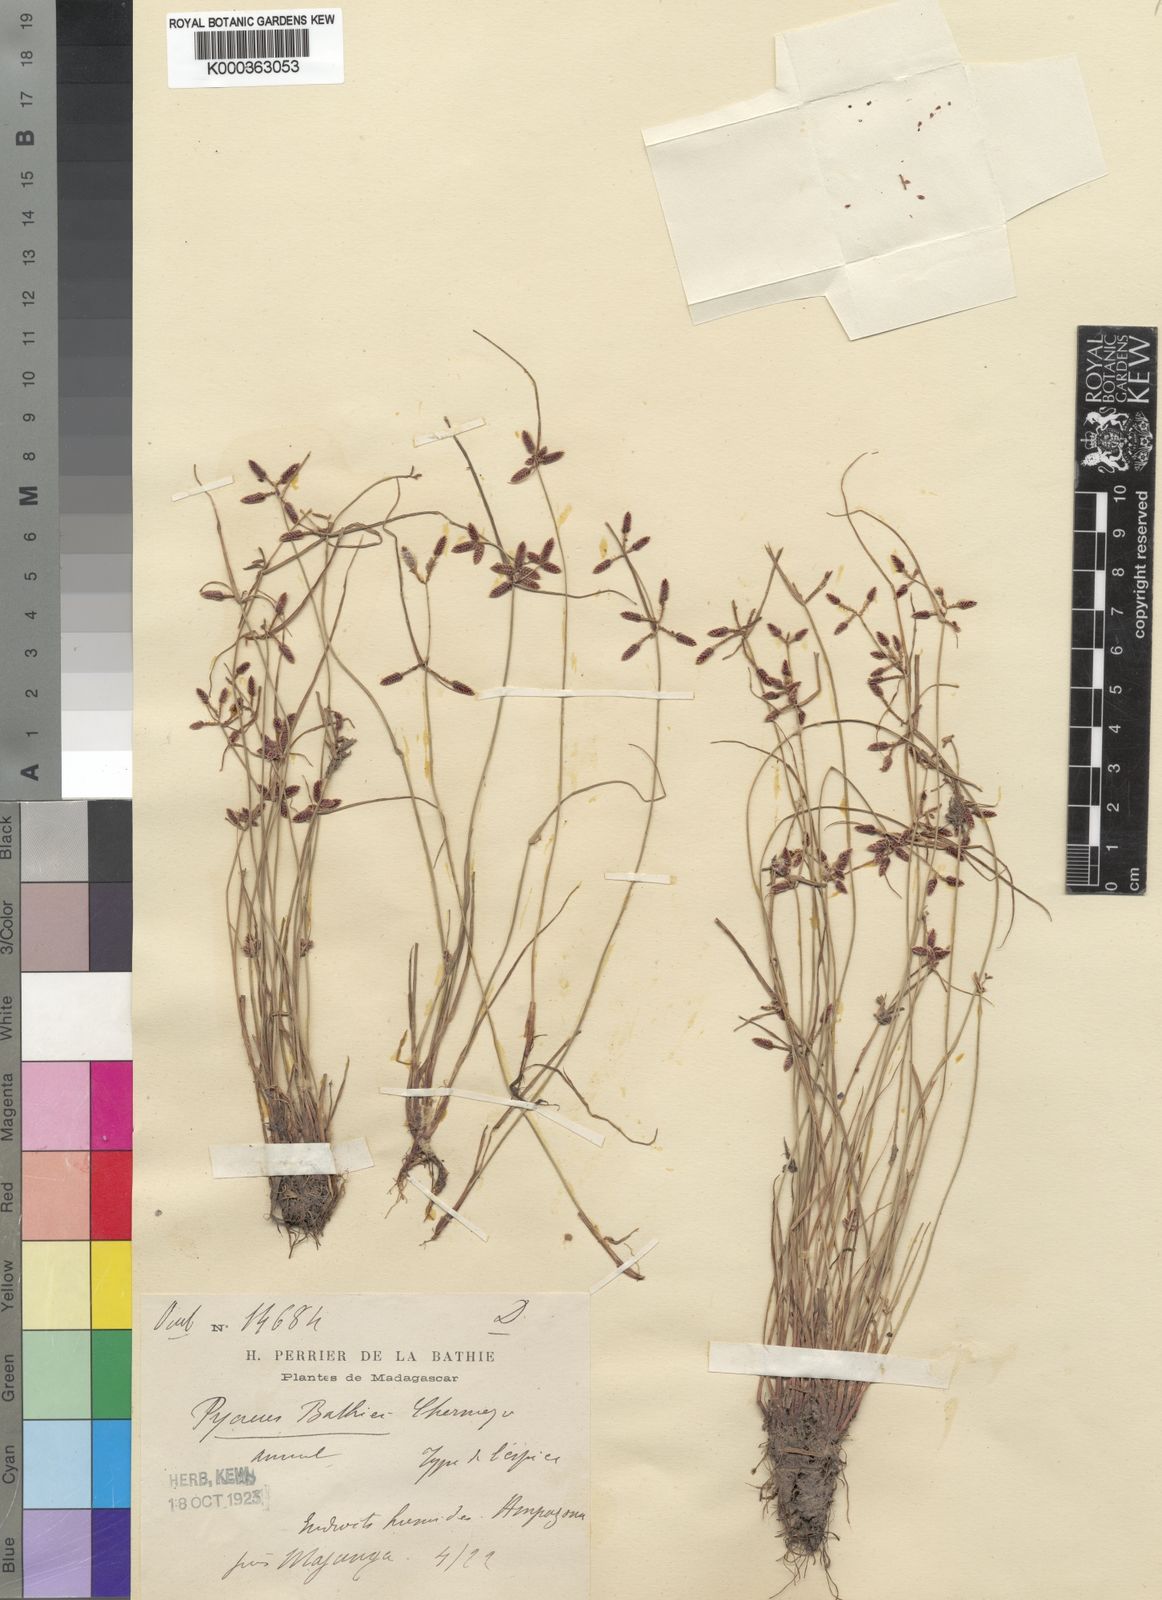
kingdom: Plantae
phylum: Tracheophyta
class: Liliopsida
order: Poales
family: Cyperaceae
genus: Cyperus
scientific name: Cyperus flavescens
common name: Yellow galingale
